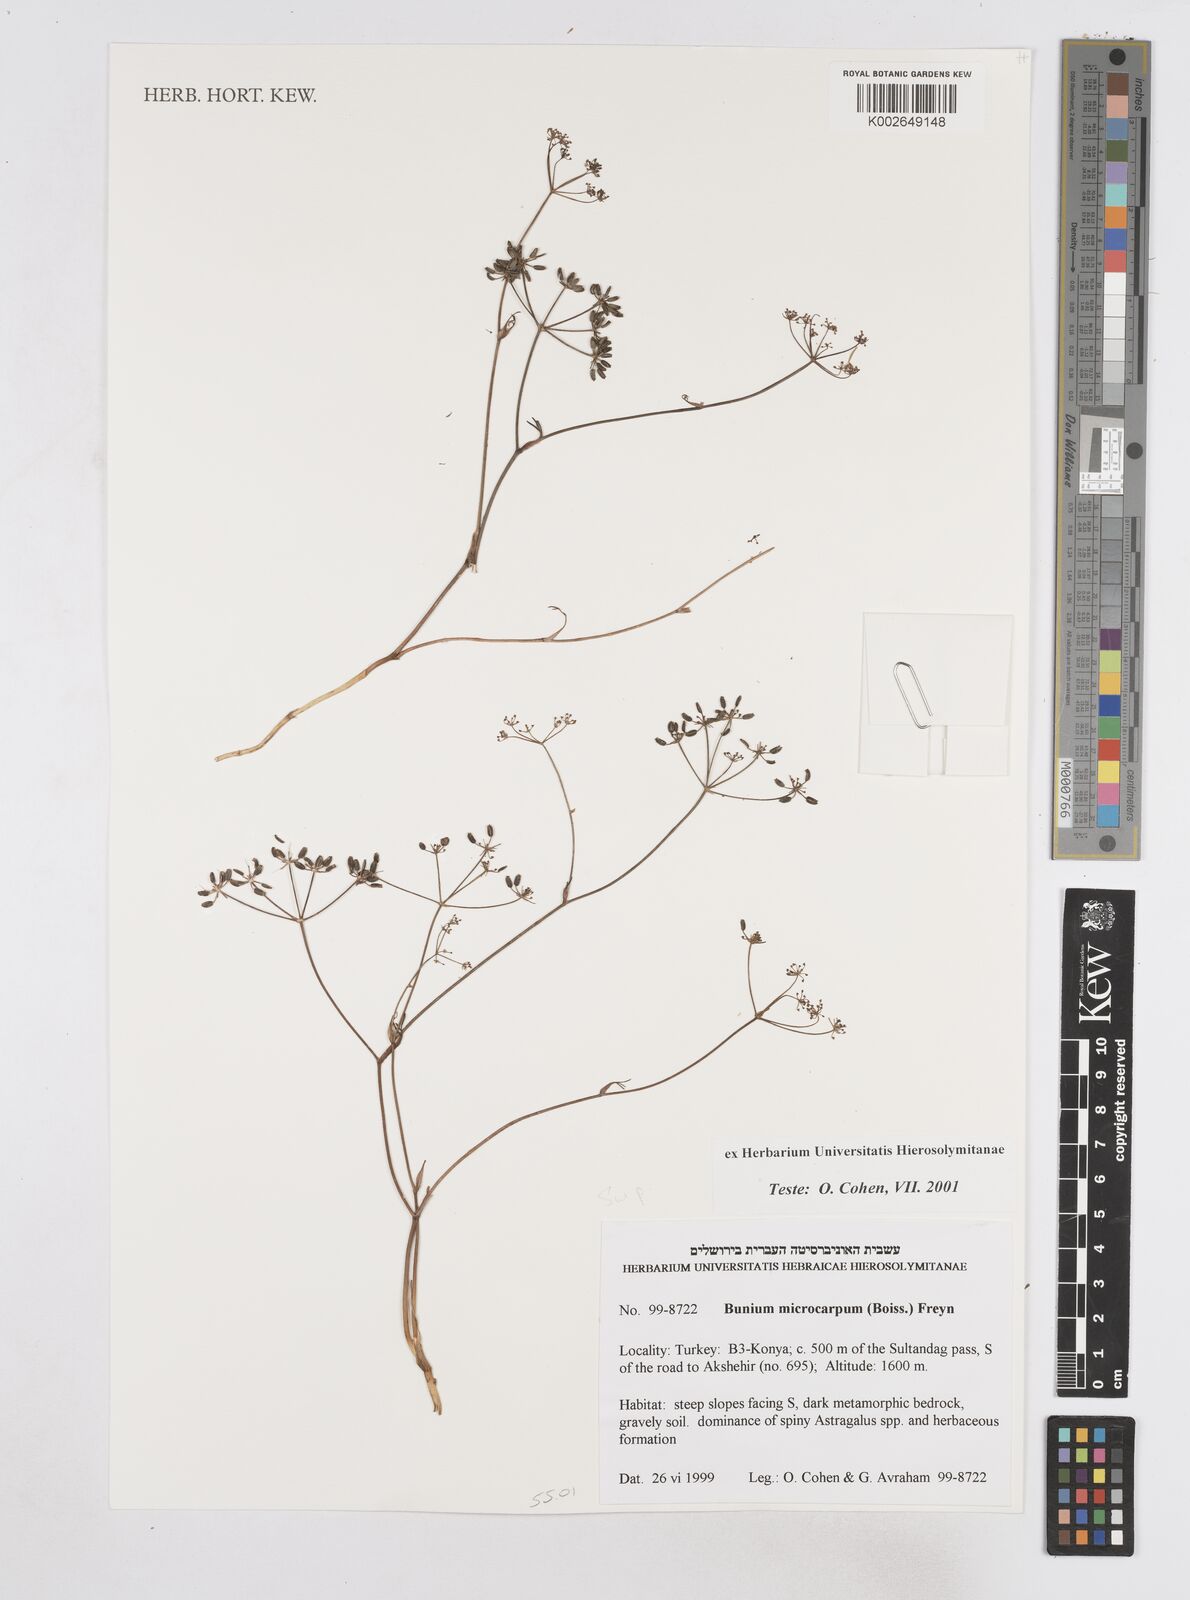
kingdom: Plantae
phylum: Tracheophyta
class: Magnoliopsida
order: Apiales
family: Apiaceae
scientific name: Apiaceae
